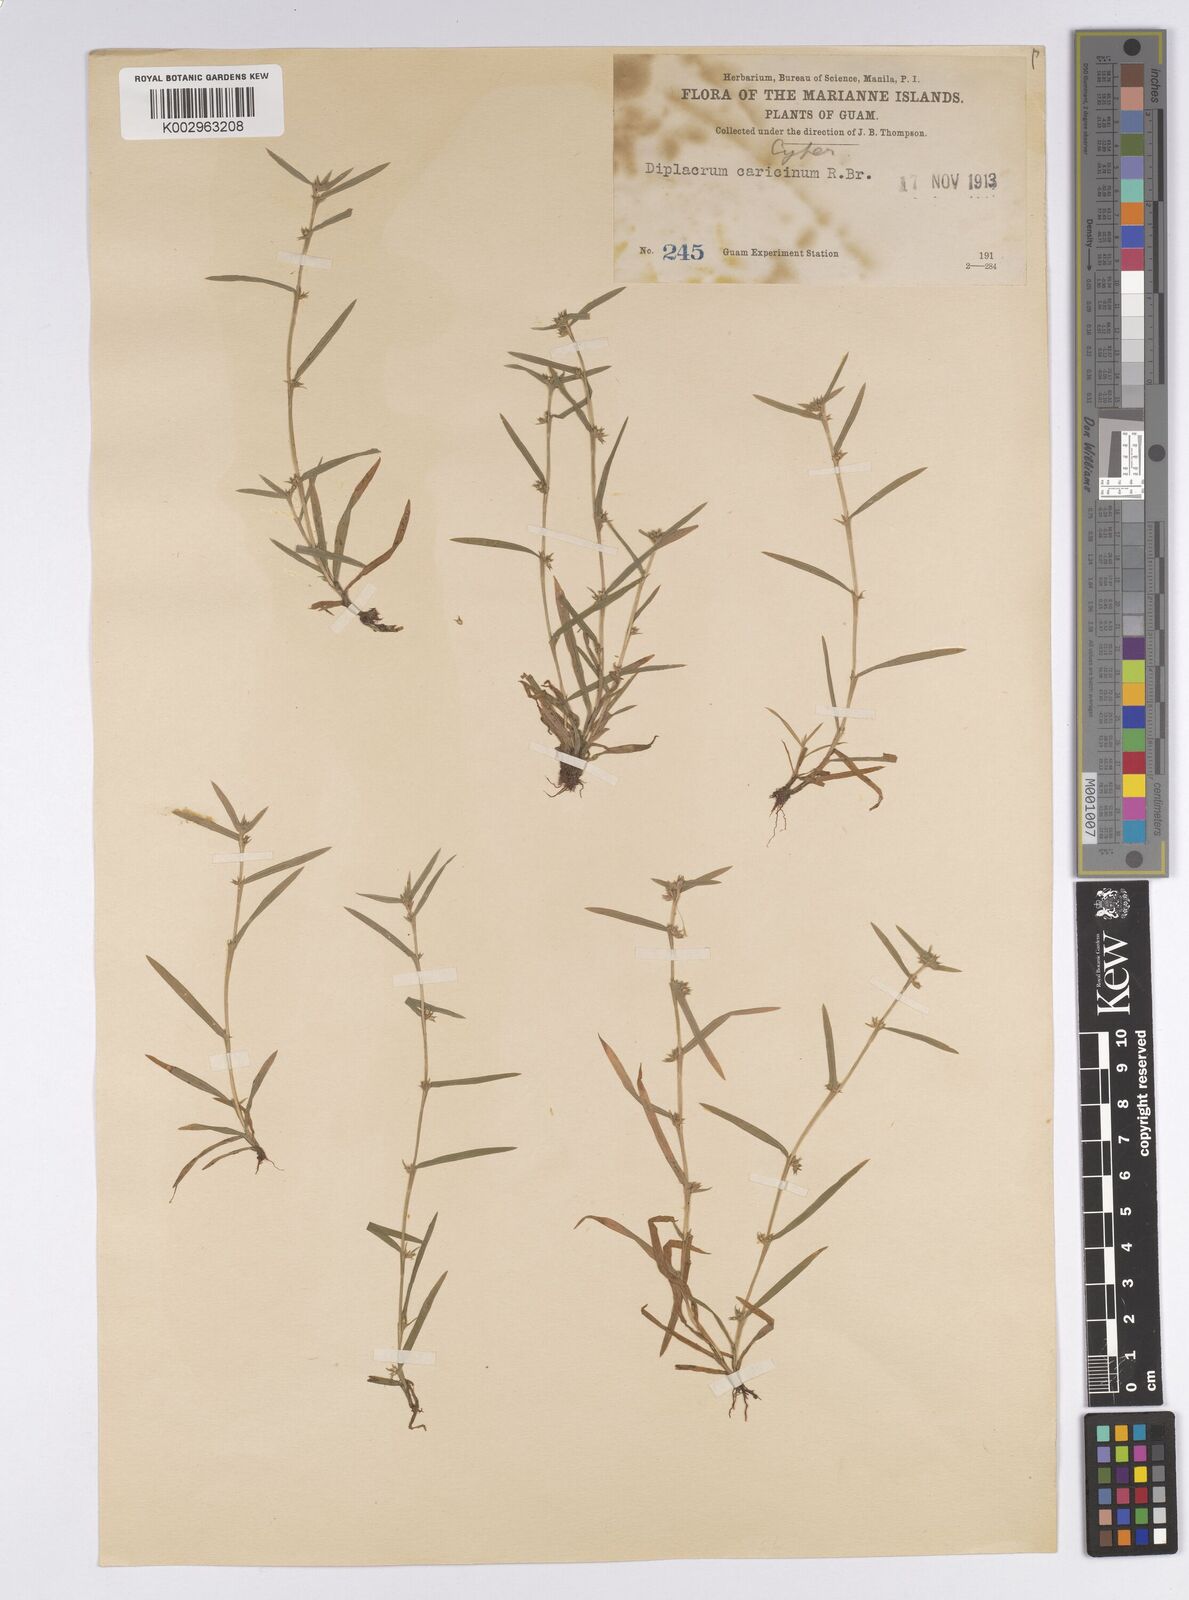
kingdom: Plantae
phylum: Tracheophyta
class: Liliopsida
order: Poales
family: Cyperaceae
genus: Diplacrum
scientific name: Diplacrum pygmaeopsis
